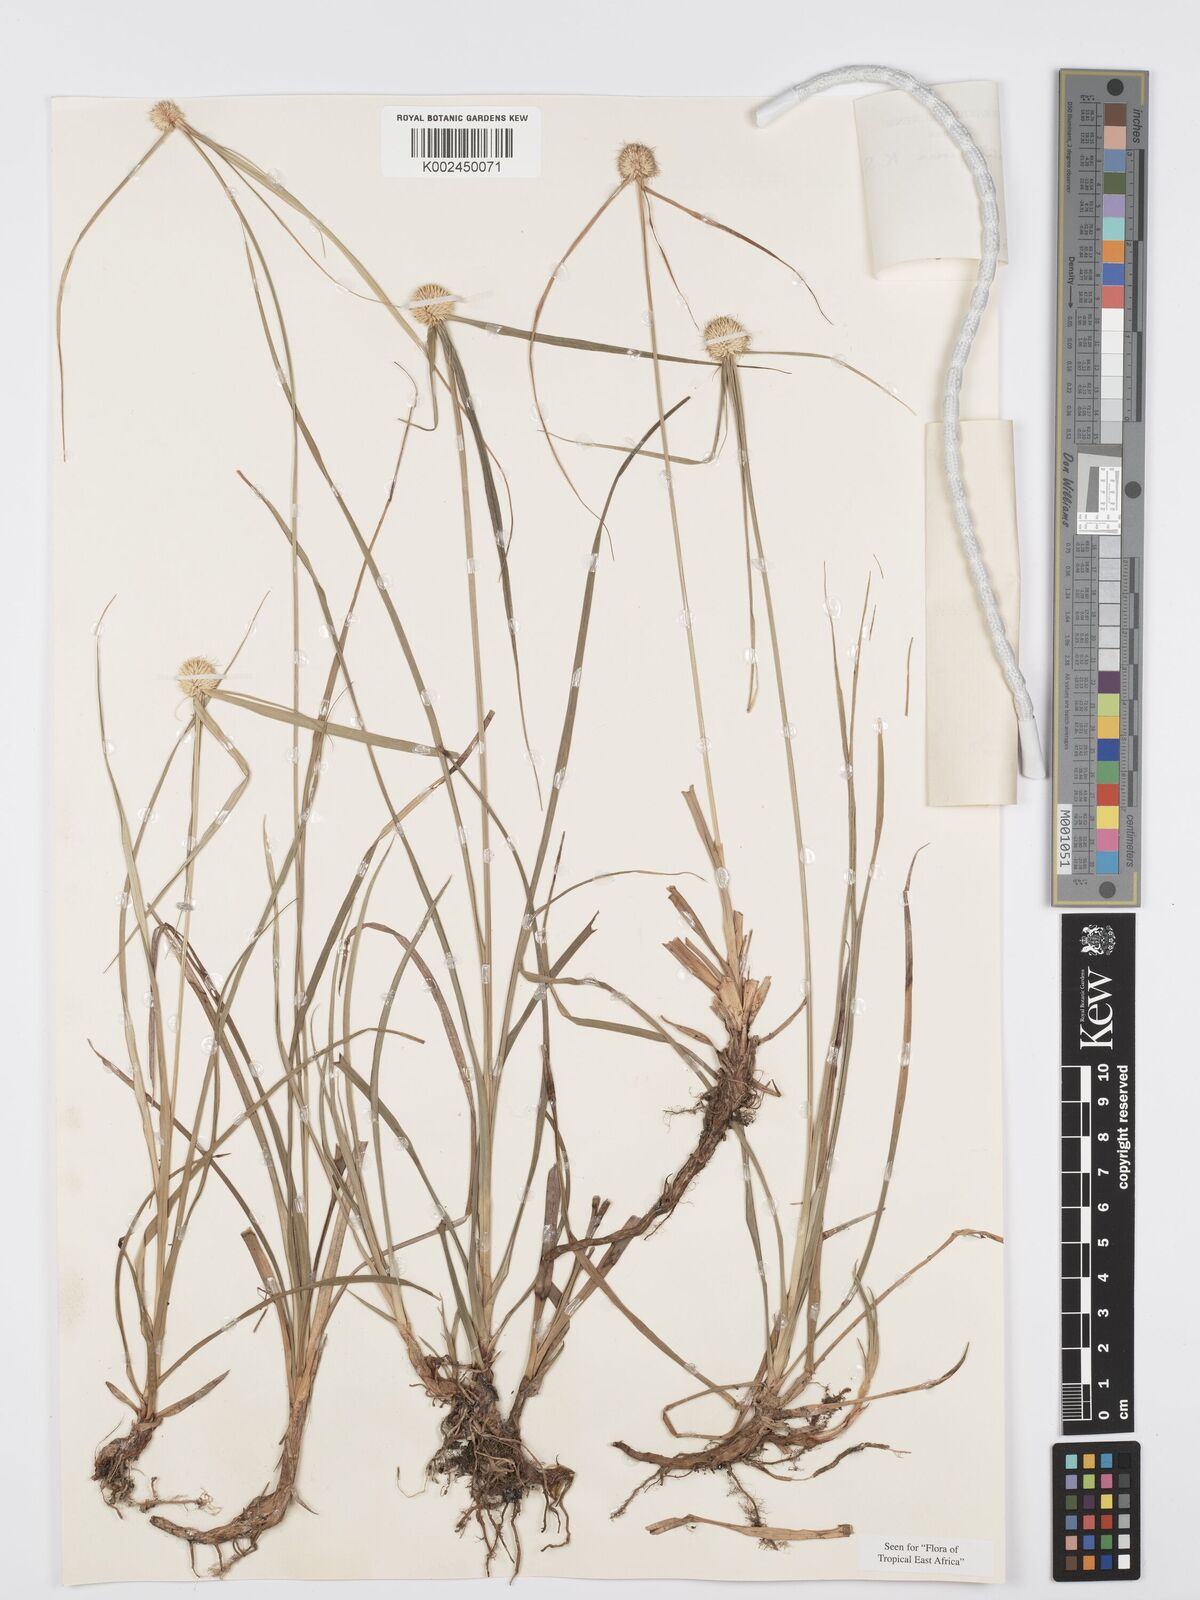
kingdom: Plantae
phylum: Tracheophyta
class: Liliopsida
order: Poales
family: Cyperaceae
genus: Cyperus
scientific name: Cyperus cartilagineus
